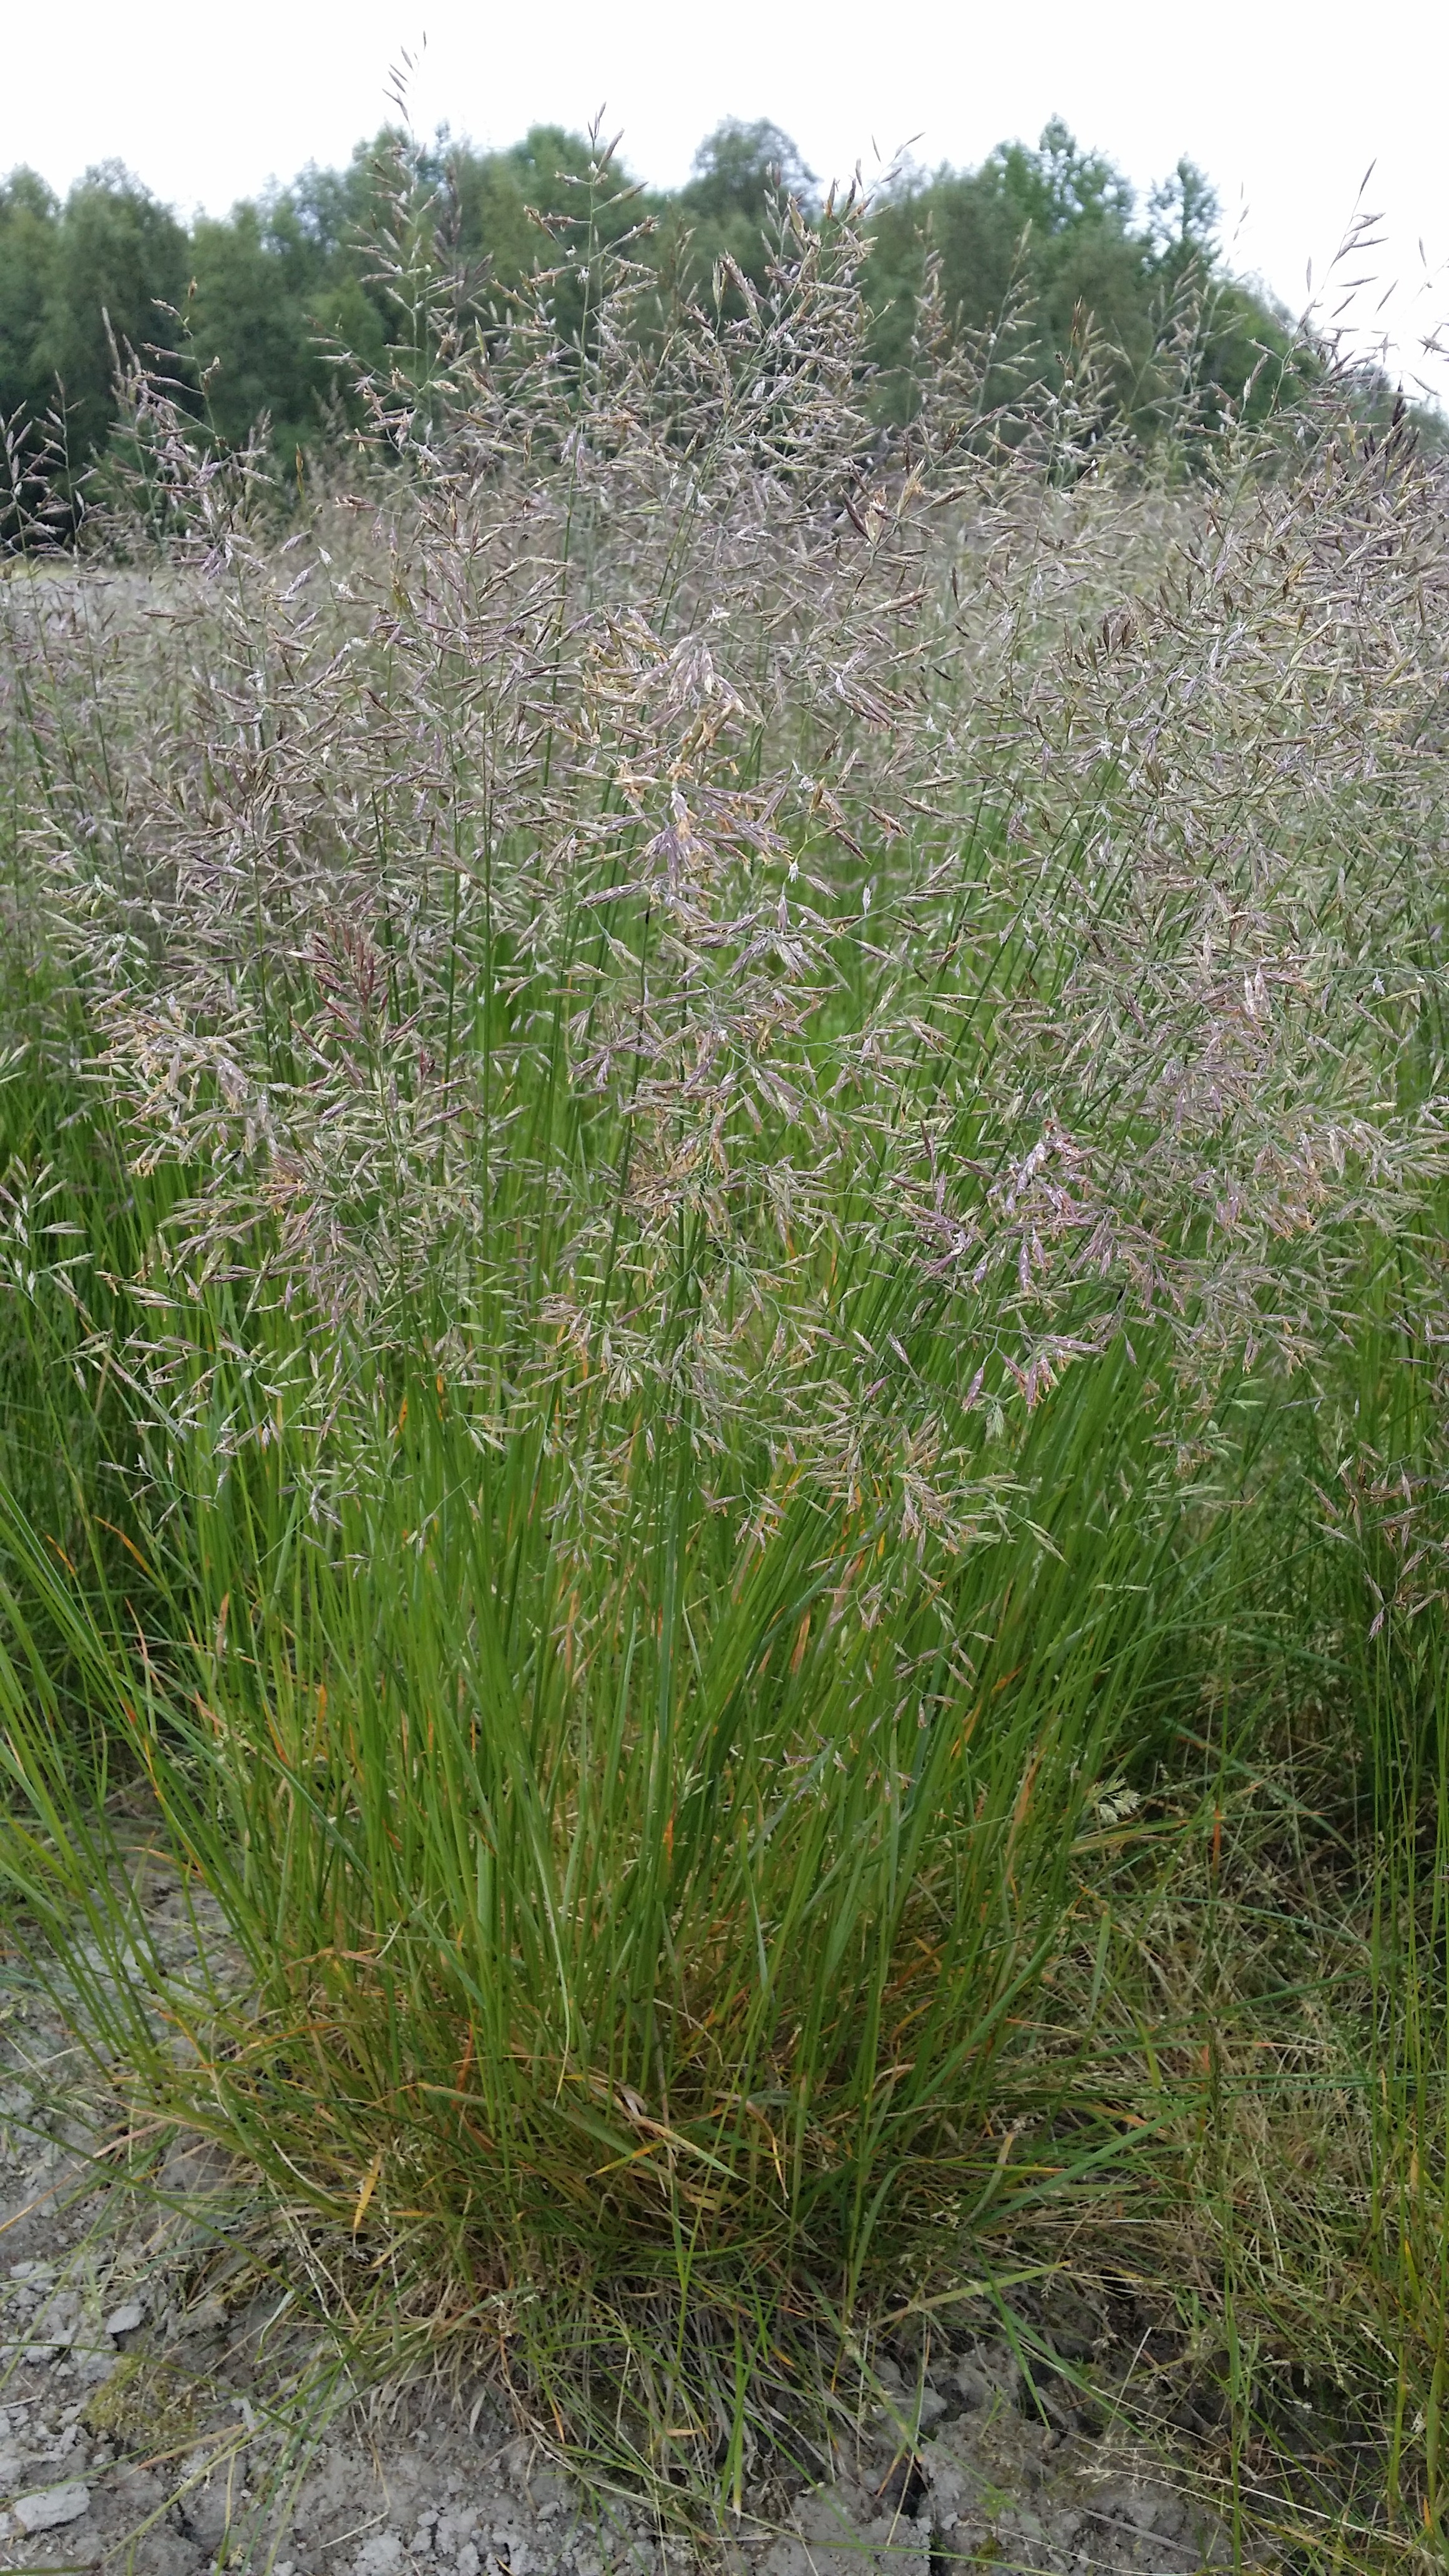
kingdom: Plantae
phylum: Tracheophyta
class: Liliopsida
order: Poales
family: Poaceae
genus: Festuca
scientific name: Festuca rubra
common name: Red fescue
